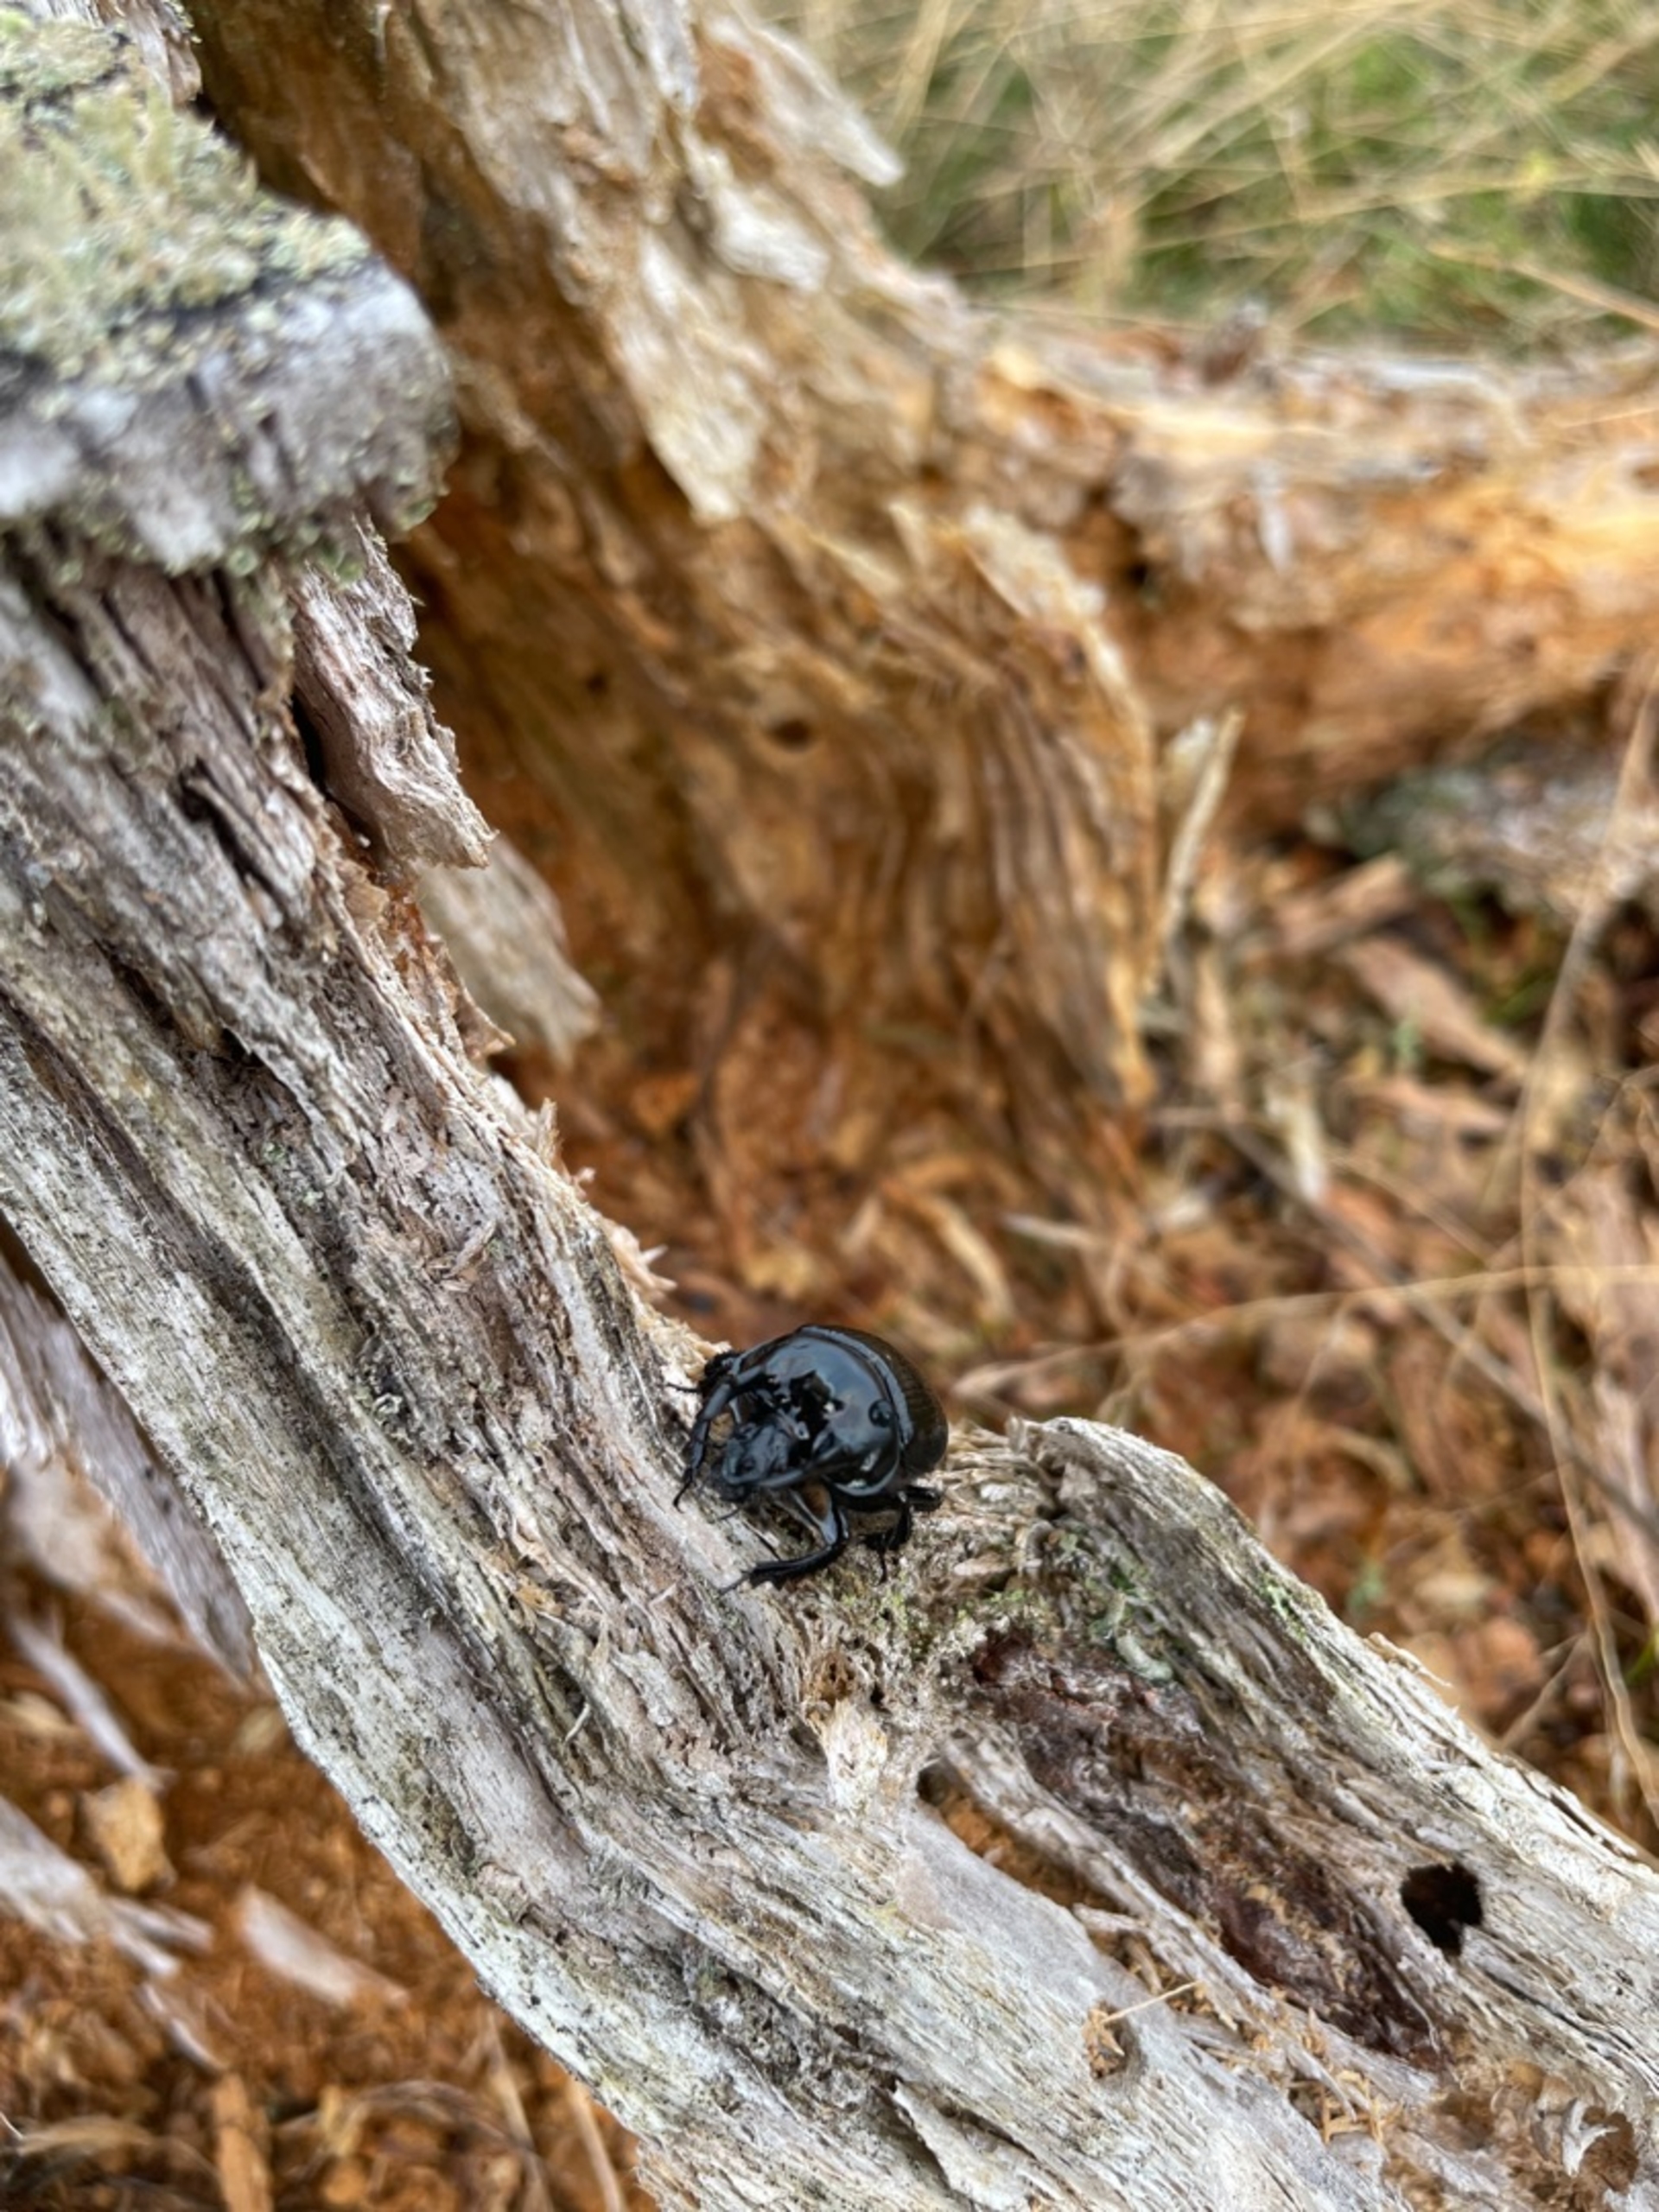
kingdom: Animalia
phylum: Arthropoda
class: Insecta
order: Coleoptera
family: Geotrupidae
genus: Typhaeus
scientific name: Typhaeus typhoeus
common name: Trehornet skarnbasse
